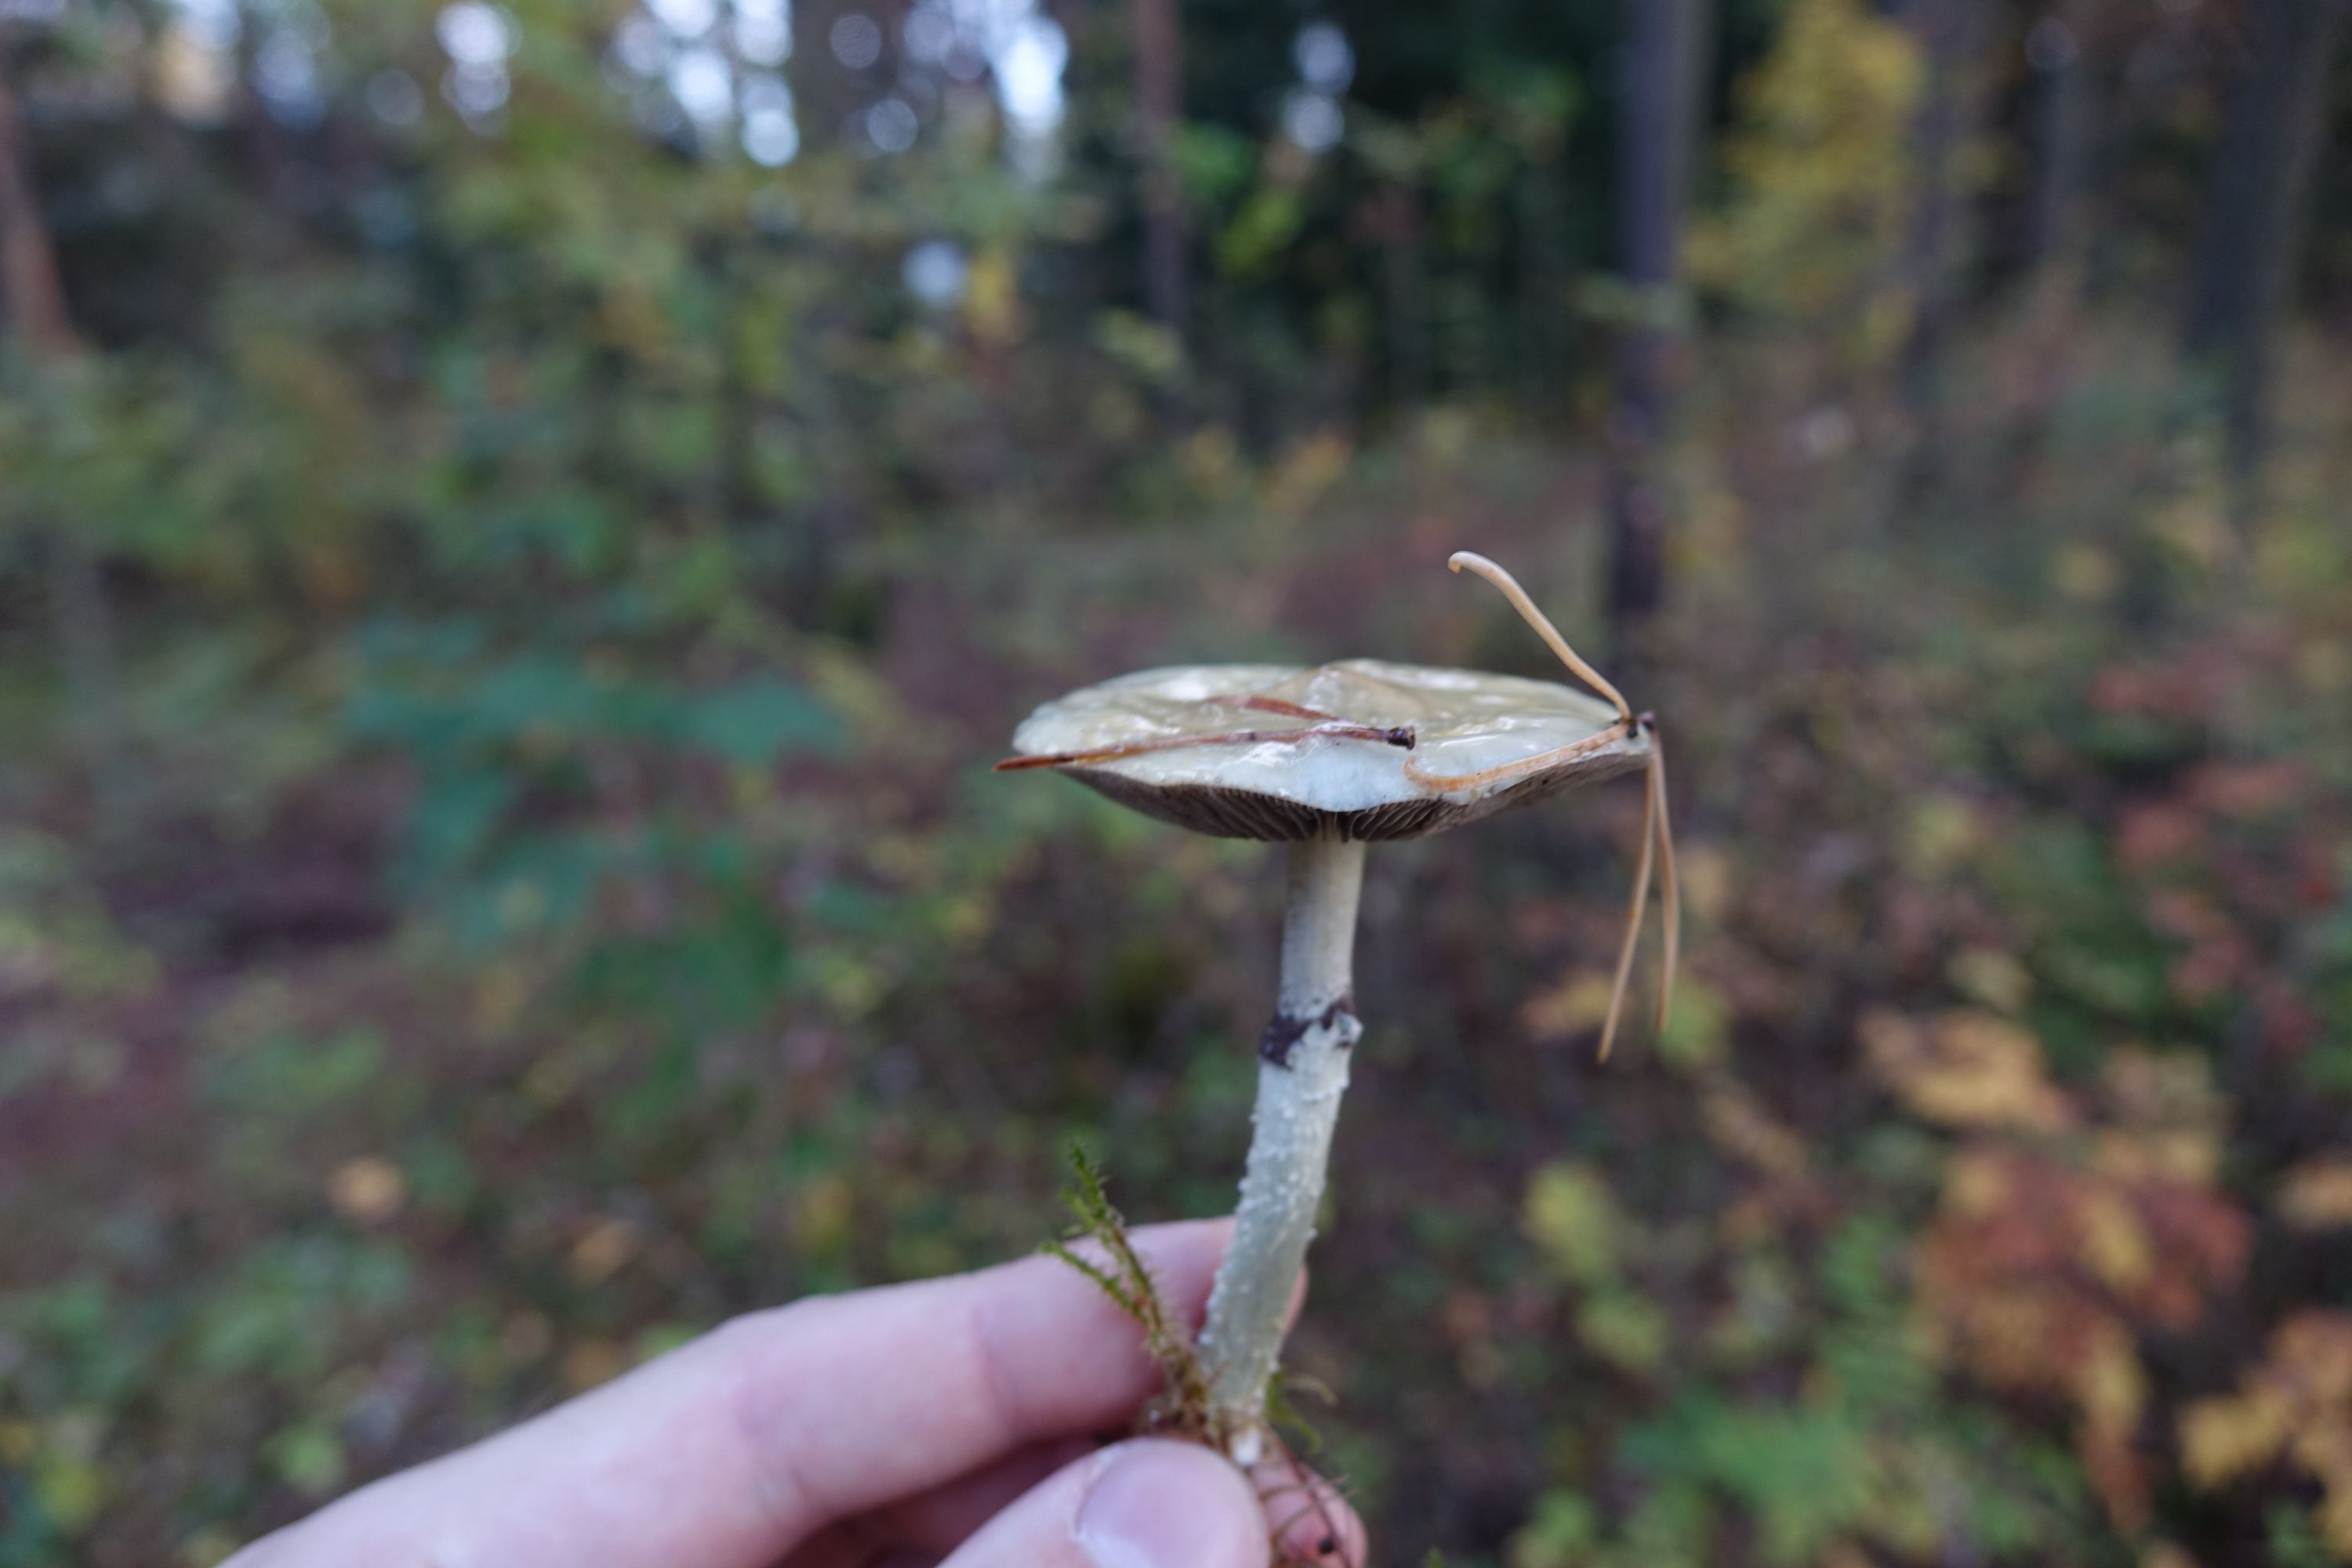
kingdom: Fungi
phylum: Basidiomycota
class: Agaricomycetes
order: Agaricales
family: Strophariaceae
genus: Stropharia
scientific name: Stropharia aeruginosa
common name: Verdigris roundhead
